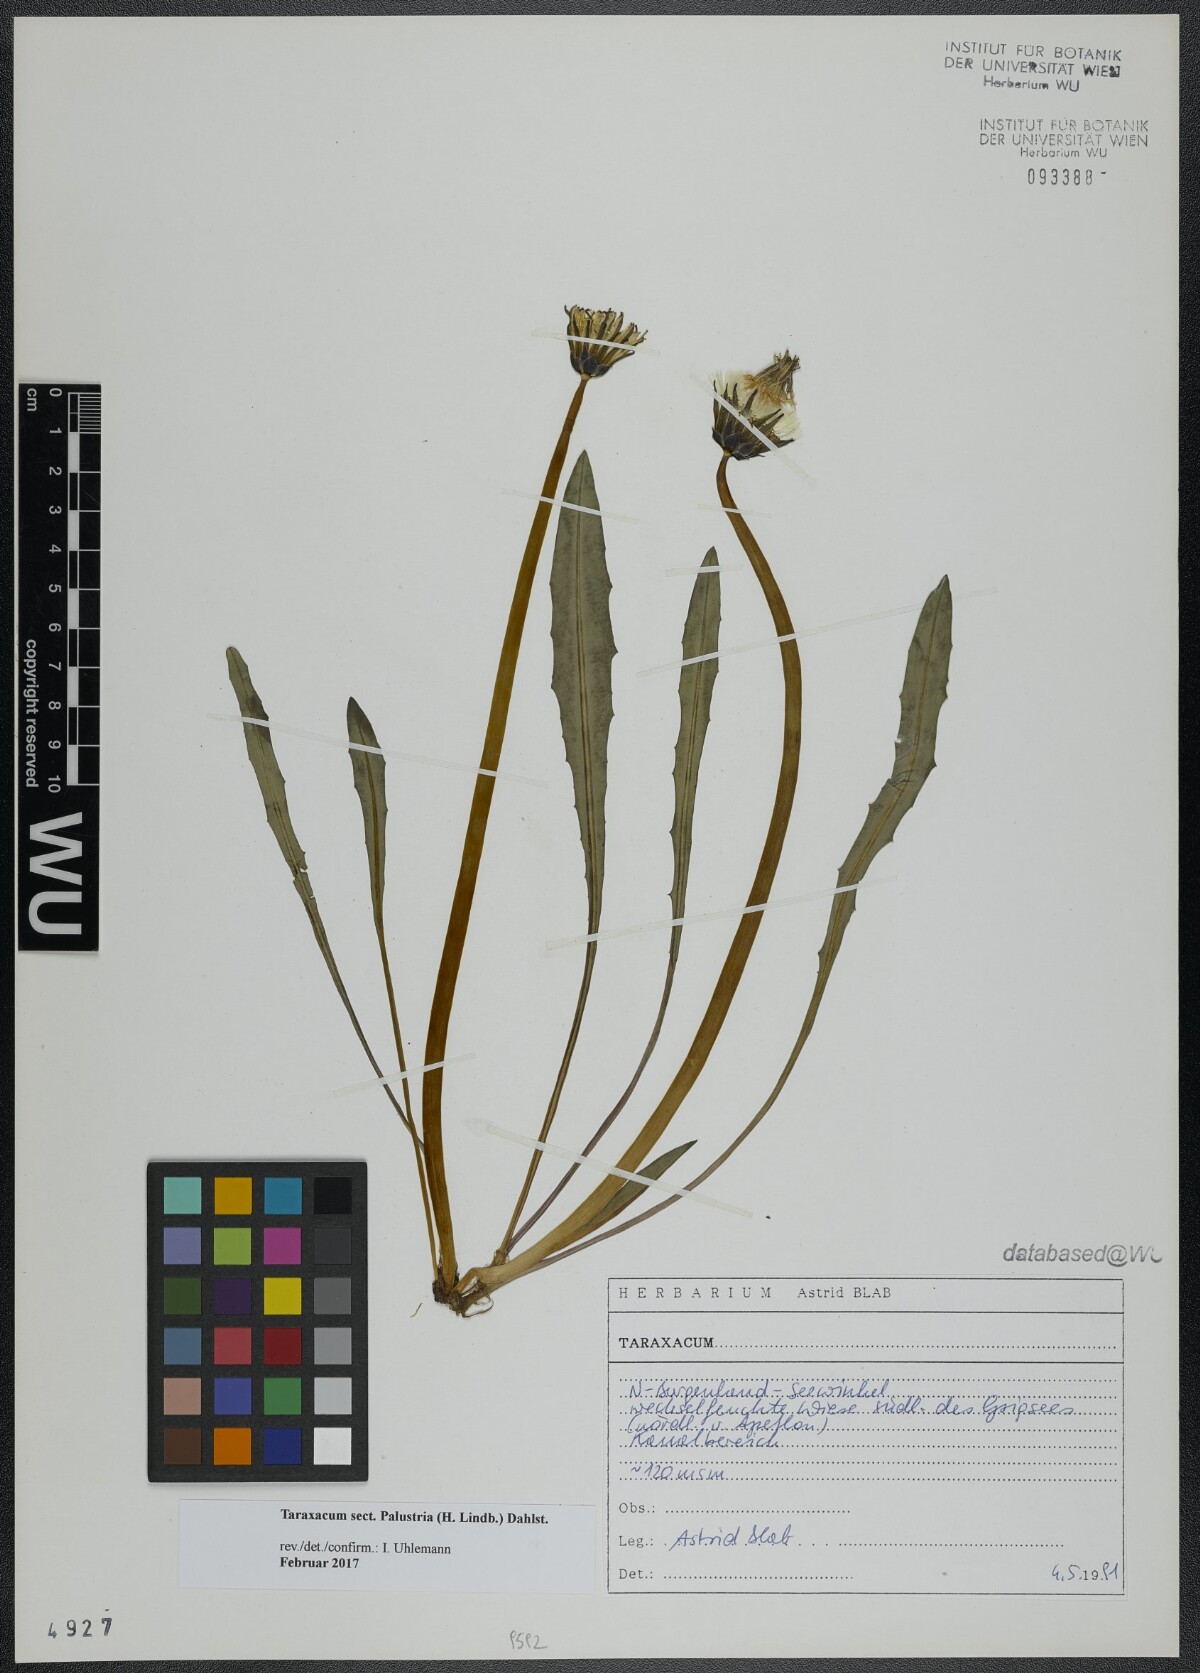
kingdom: Plantae
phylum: Tracheophyta
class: Magnoliopsida
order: Asterales
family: Asteraceae
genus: Taraxacum
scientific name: Taraxacum
